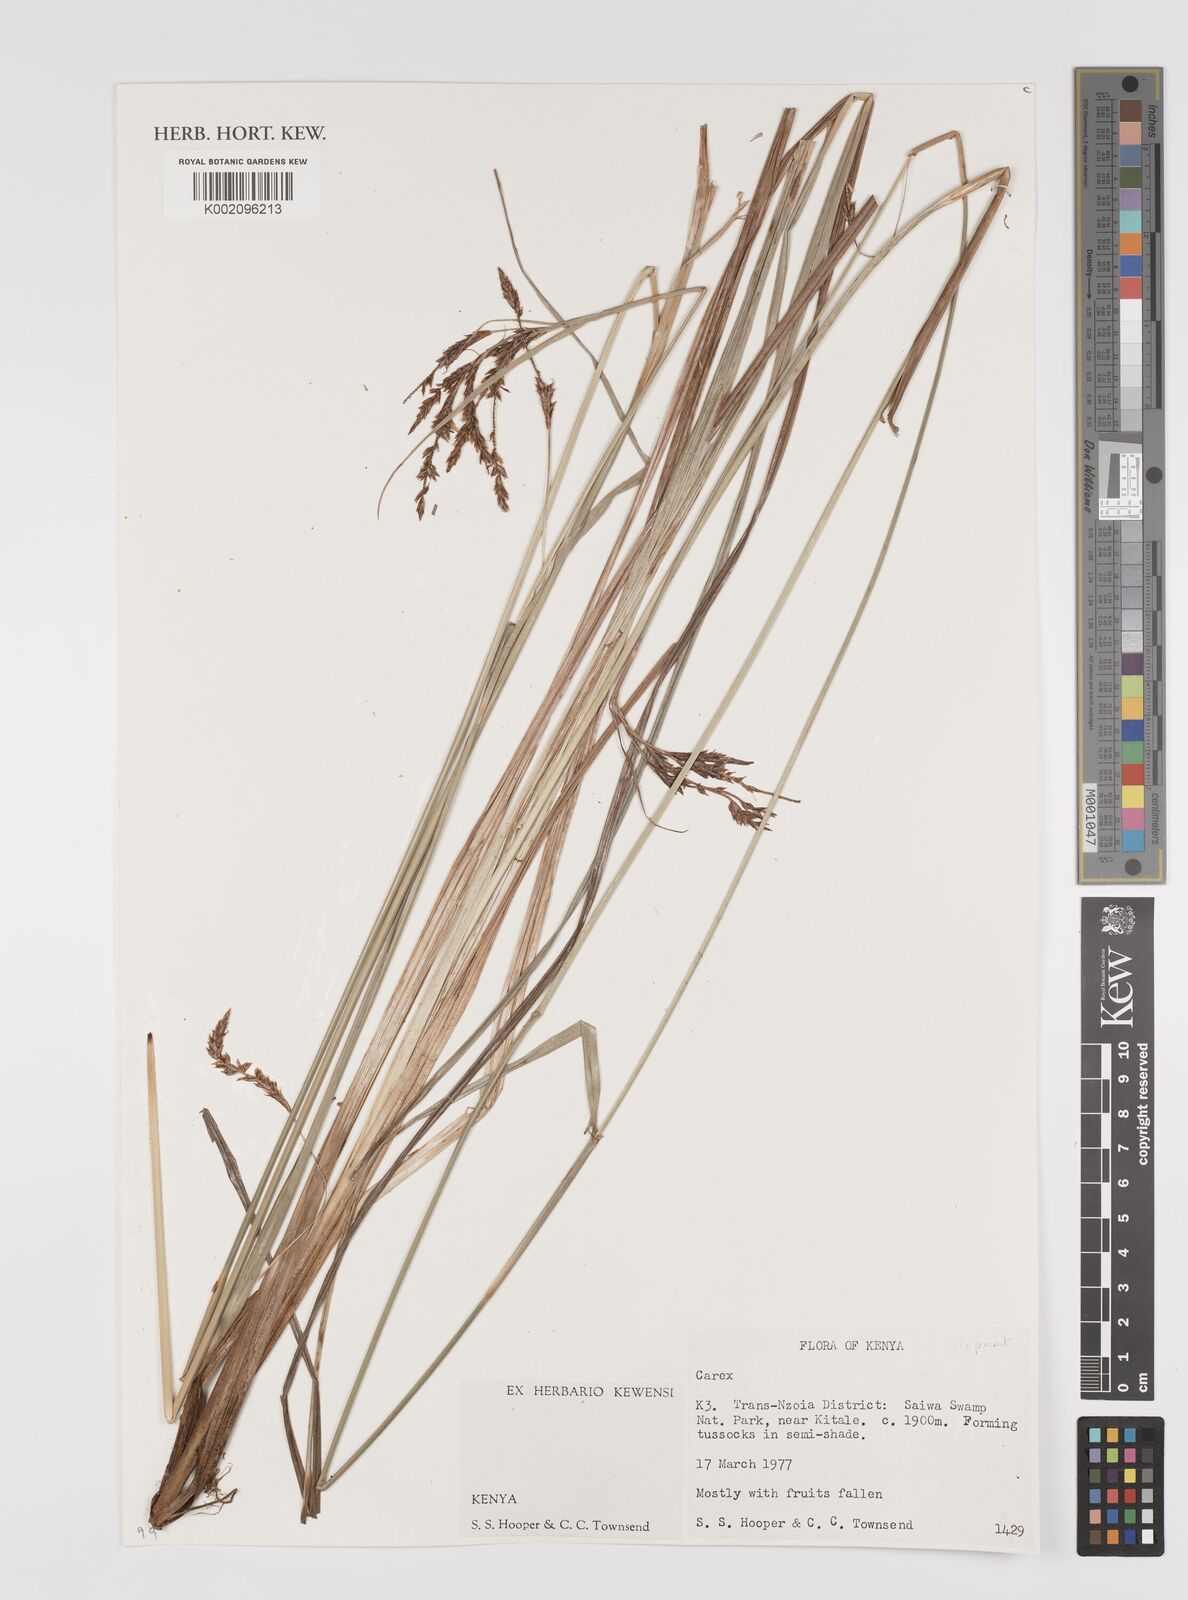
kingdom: Plantae
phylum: Tracheophyta
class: Liliopsida
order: Poales
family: Cyperaceae
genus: Carex
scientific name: Carex
